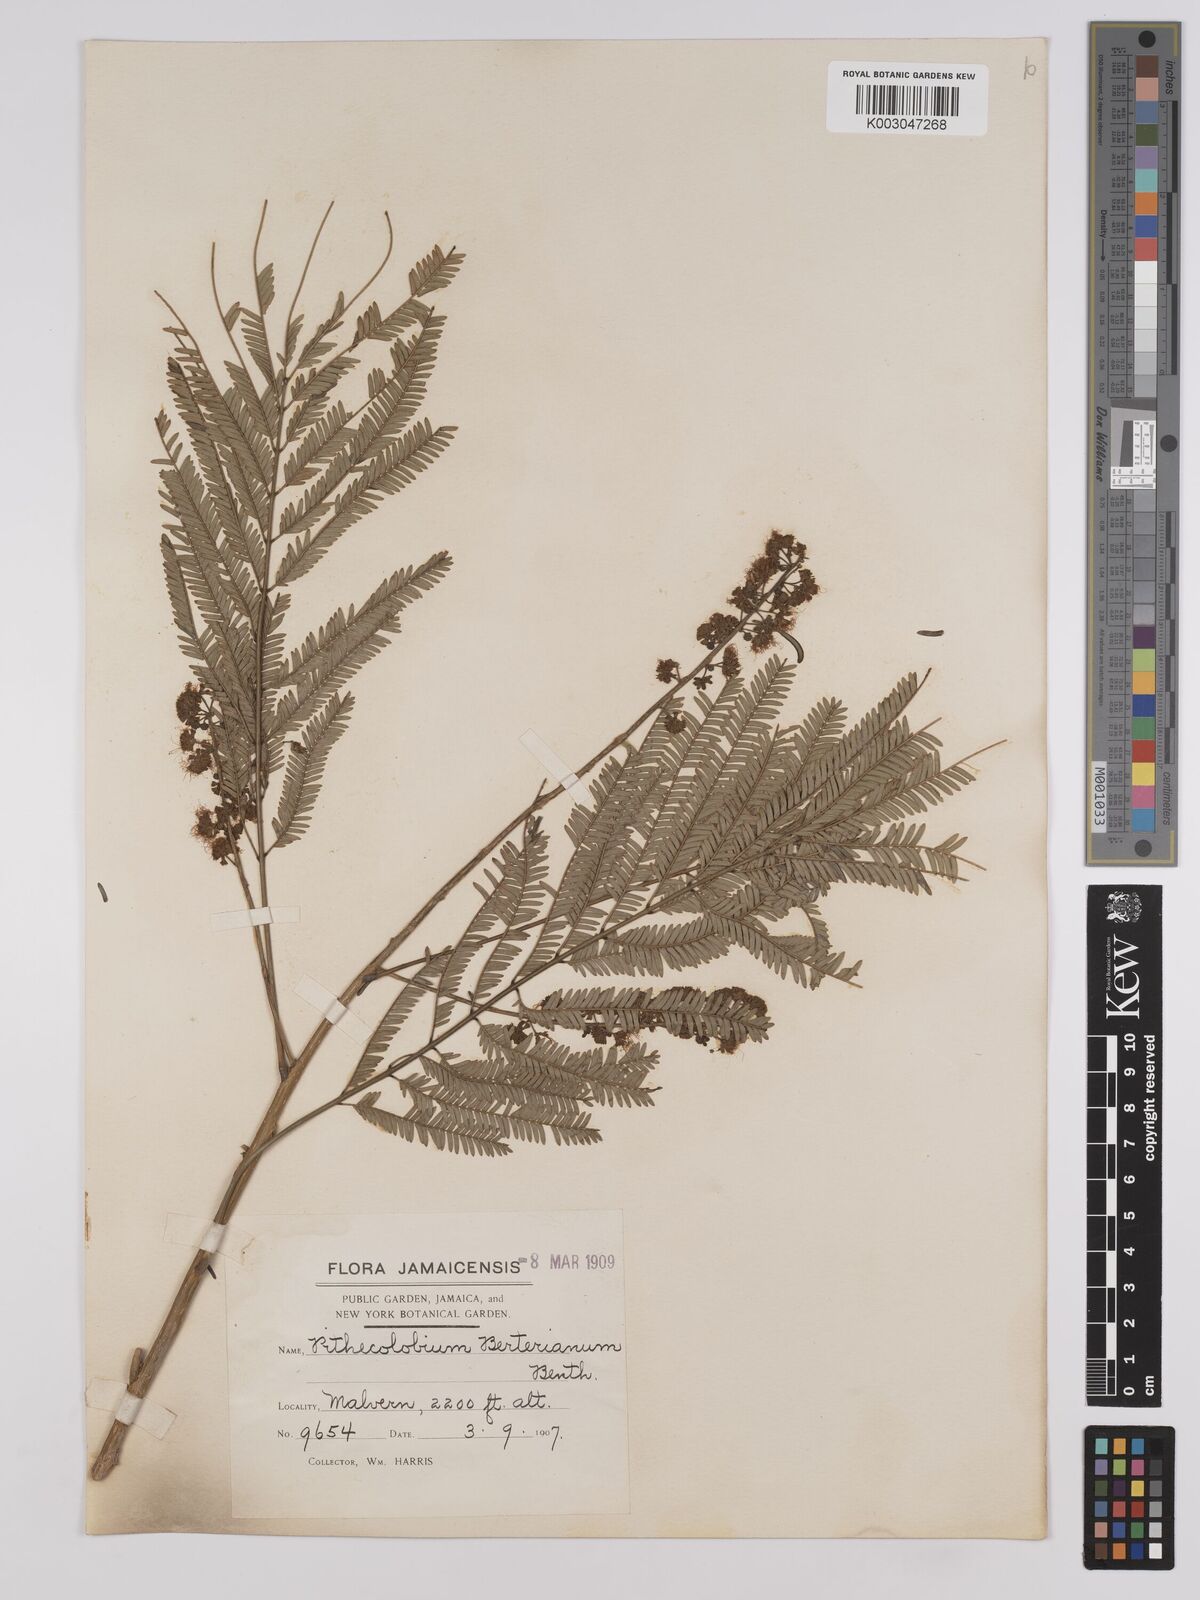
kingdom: Plantae
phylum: Tracheophyta
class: Magnoliopsida
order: Fabales
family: Fabaceae
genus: Albizia
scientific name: Albizia
